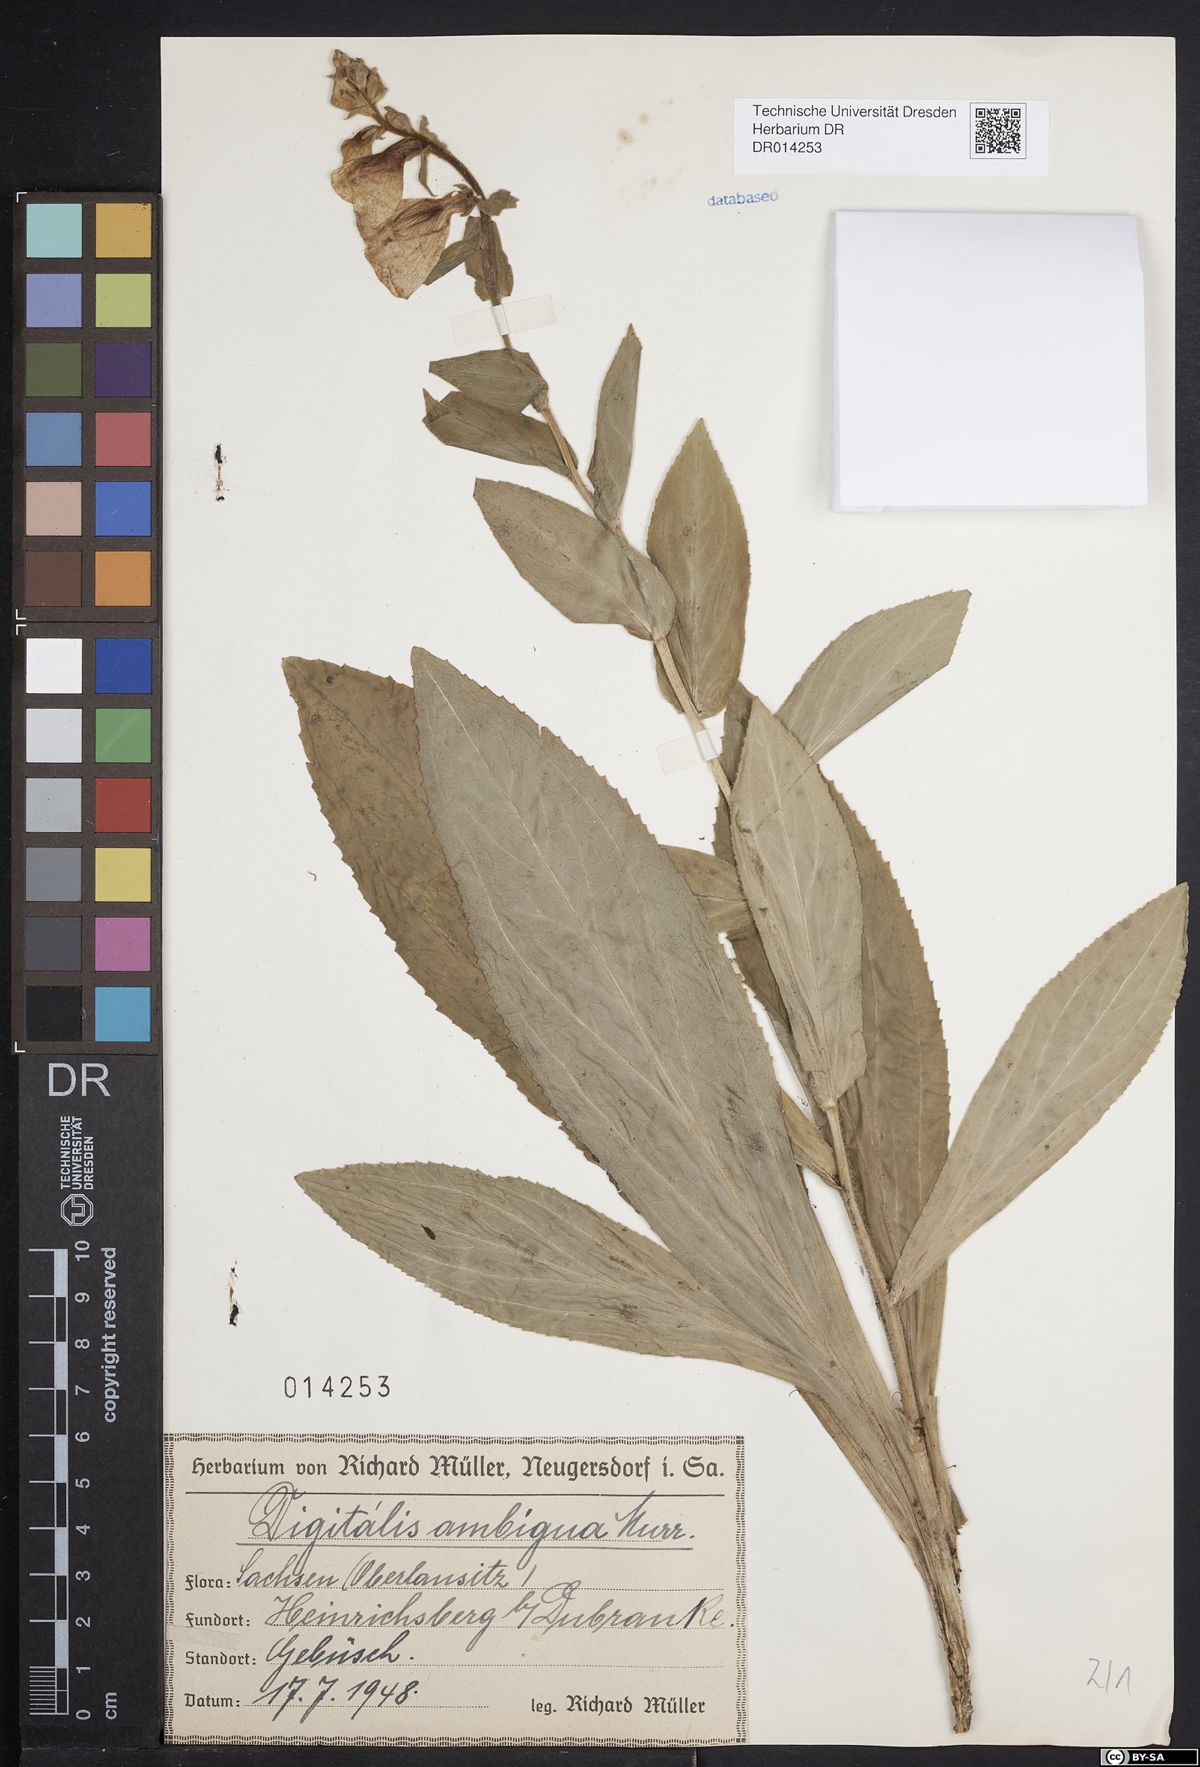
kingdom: Plantae
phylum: Tracheophyta
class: Magnoliopsida
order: Lamiales
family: Plantaginaceae
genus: Digitalis
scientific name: Digitalis grandiflora
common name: Yellow foxglove
